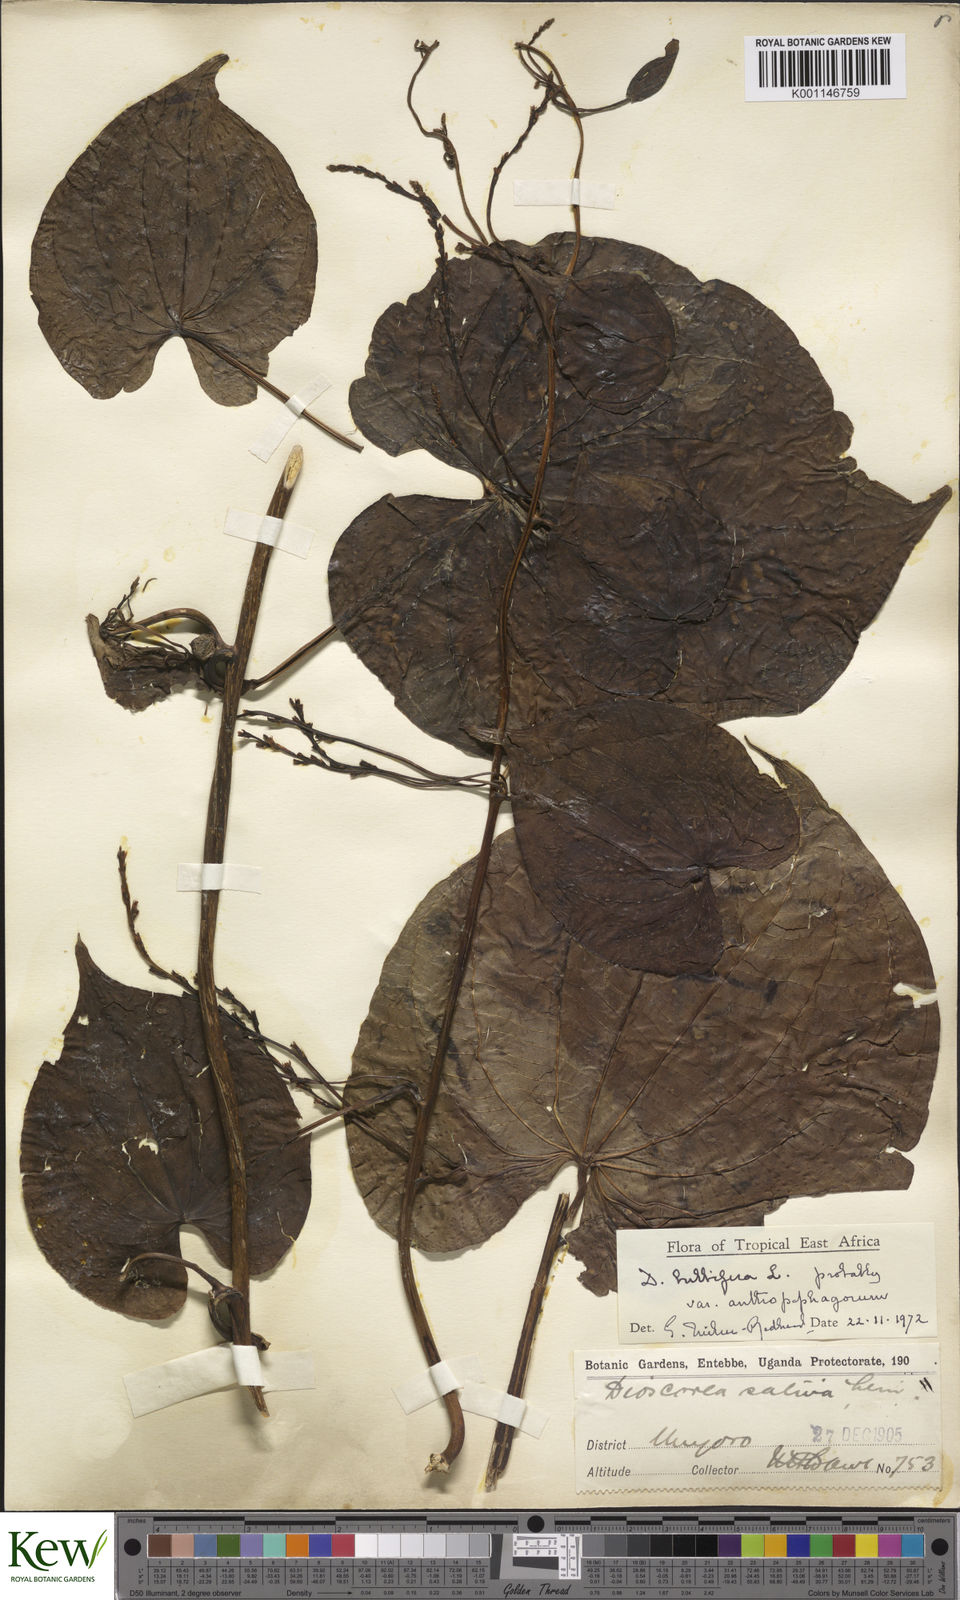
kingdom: Plantae
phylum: Tracheophyta
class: Liliopsida
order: Dioscoreales
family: Dioscoreaceae
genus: Dioscorea
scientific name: Dioscorea bulbifera
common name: Air yam
